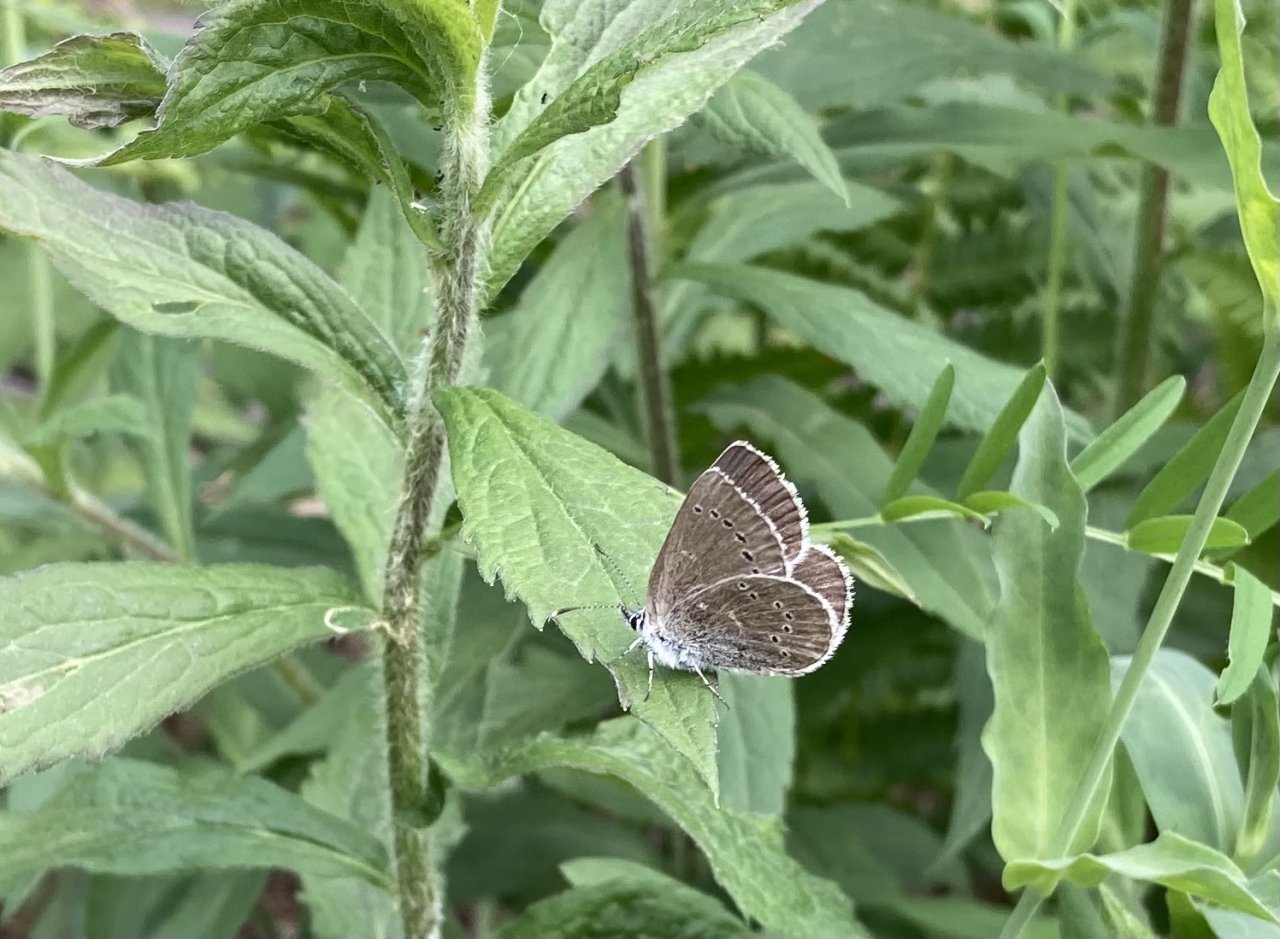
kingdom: Animalia
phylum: Arthropoda
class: Insecta
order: Lepidoptera
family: Lycaenidae
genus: Glaucopsyche
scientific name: Glaucopsyche lygdamus
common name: Silvery Blue
